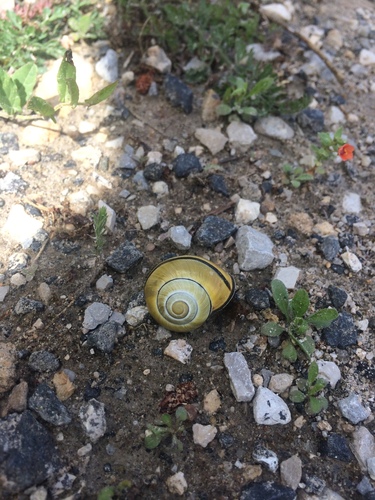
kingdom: Animalia
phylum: Mollusca
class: Gastropoda
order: Stylommatophora
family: Helicidae
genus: Cepaea
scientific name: Cepaea nemoralis
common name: Grovesnail
